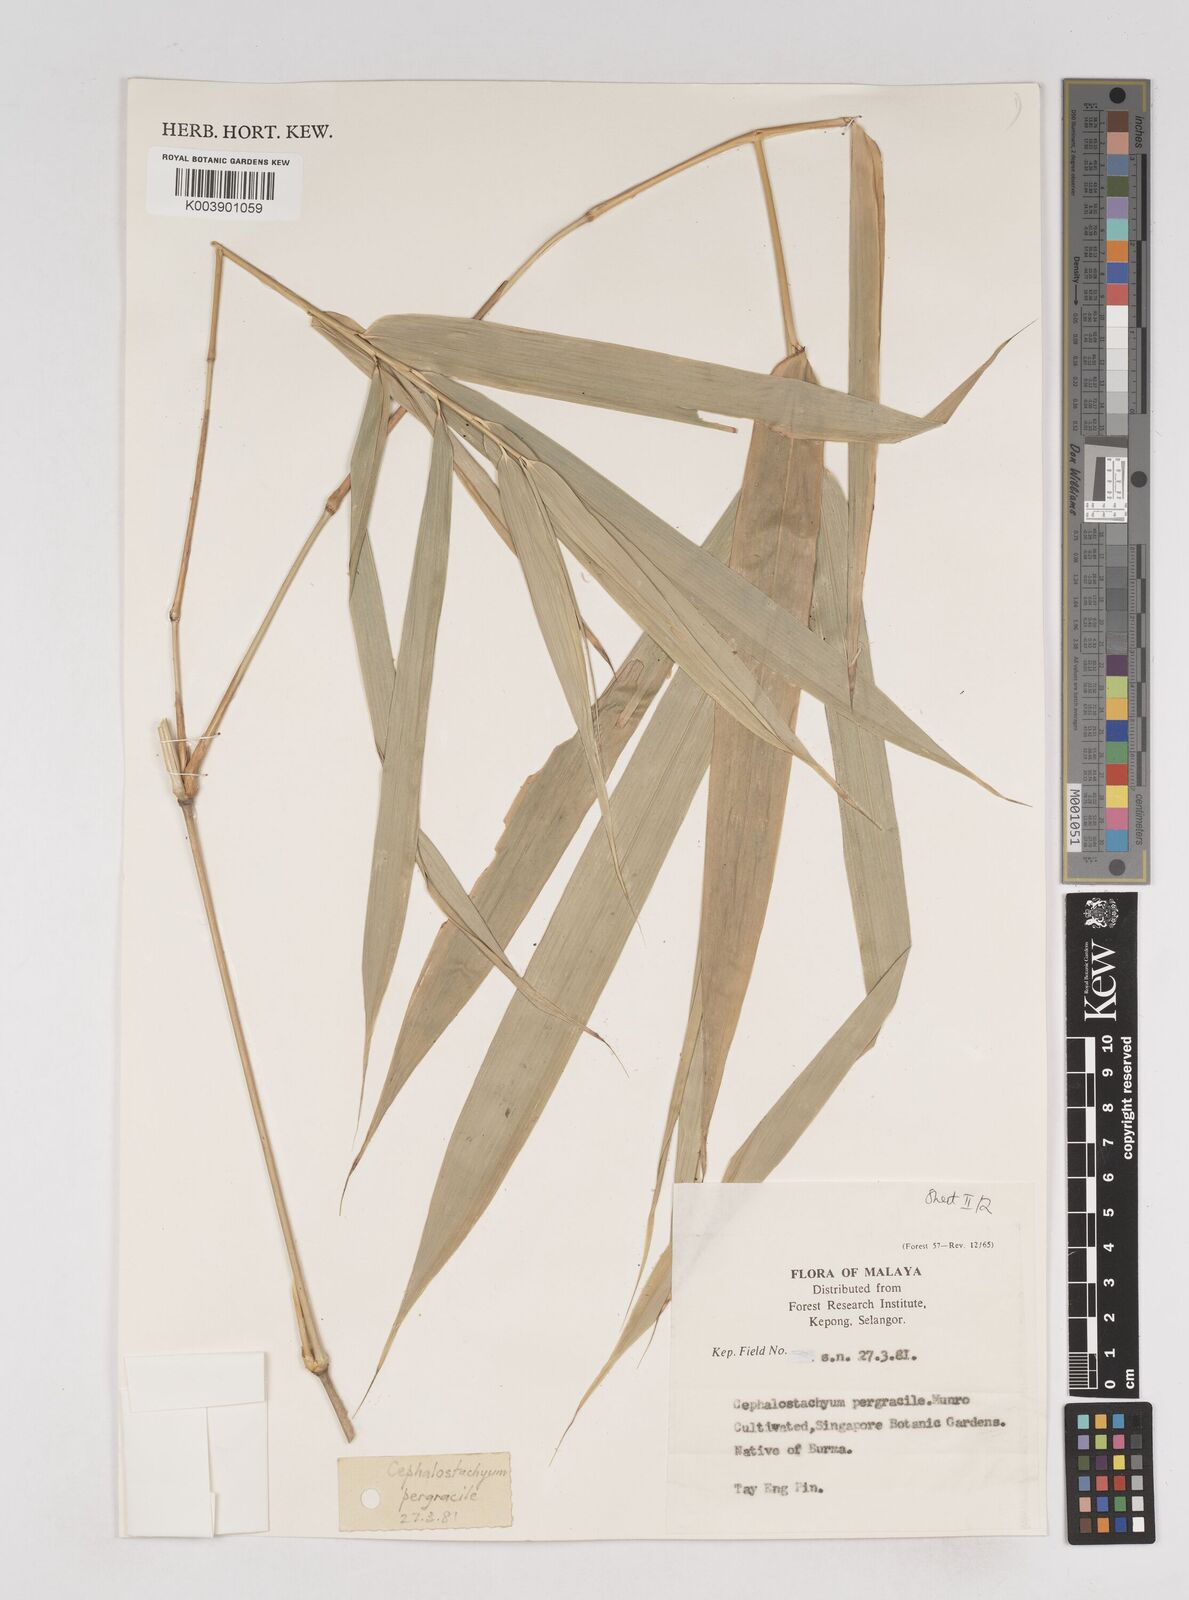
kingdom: Plantae
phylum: Tracheophyta
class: Liliopsida
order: Poales
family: Poaceae
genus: Schizostachyum
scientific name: Schizostachyum pergracile
